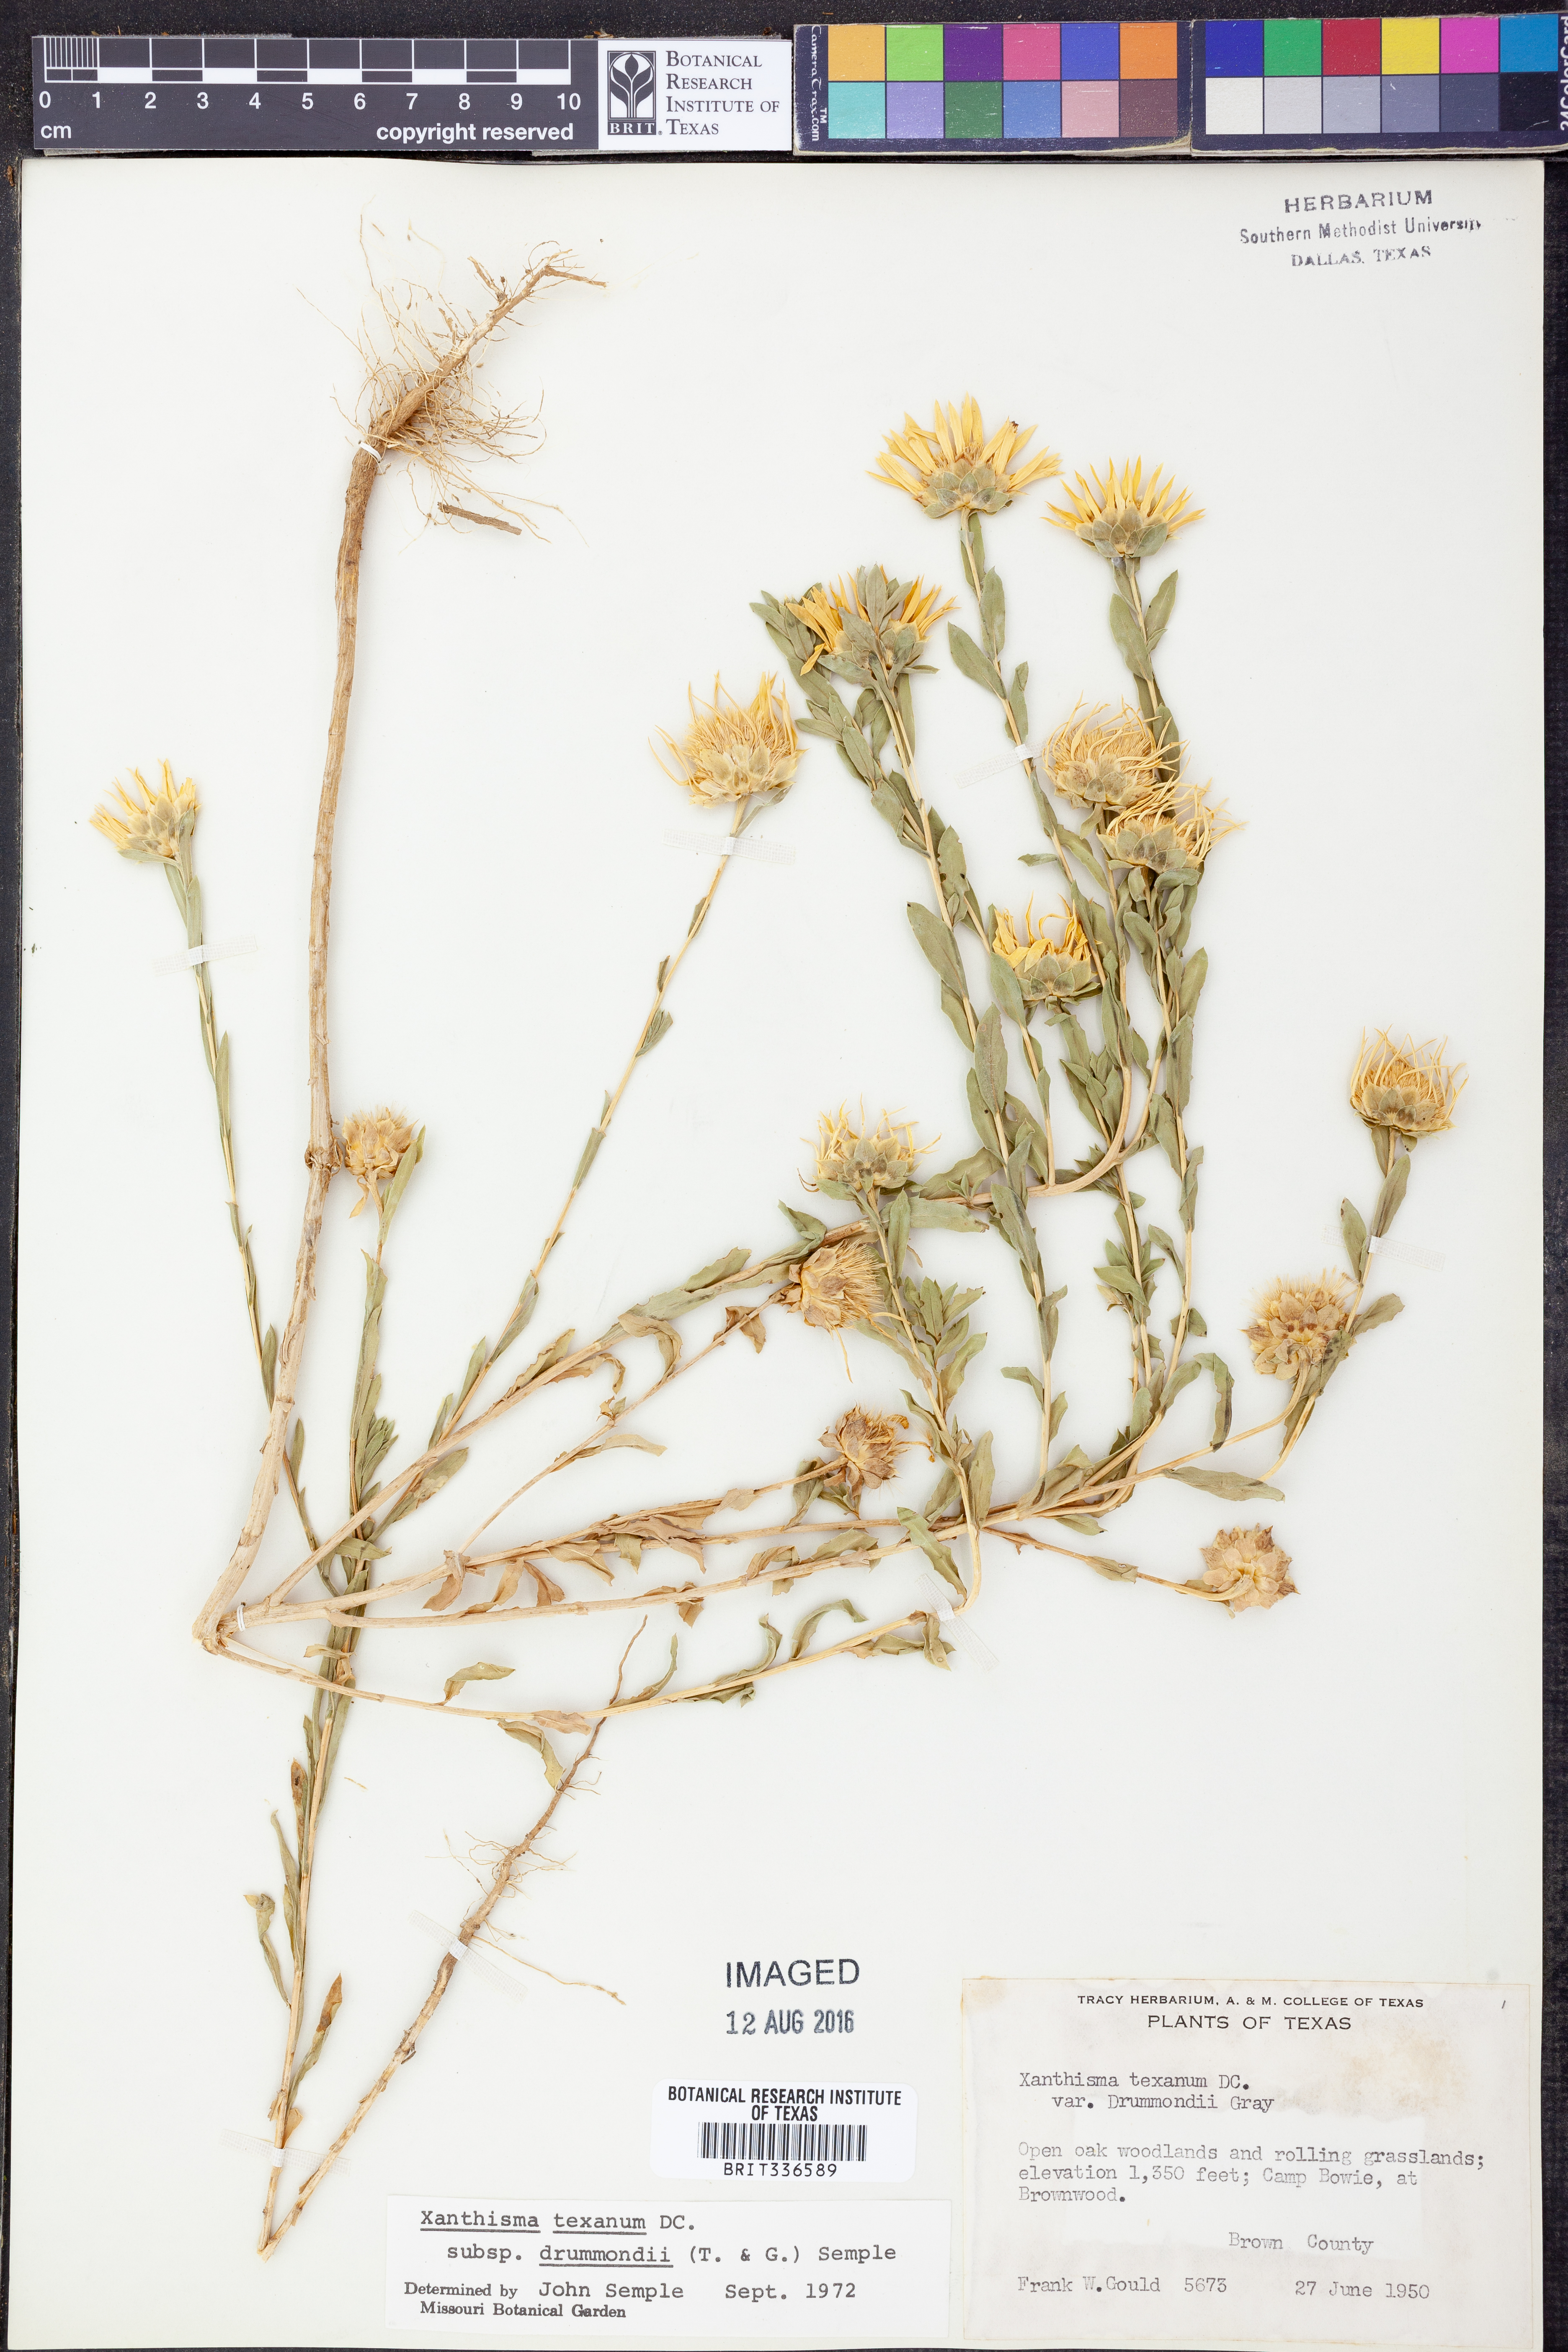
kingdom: Plantae
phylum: Tracheophyta
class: Magnoliopsida
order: Asterales
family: Asteraceae
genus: Xanthisma
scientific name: Xanthisma texanum
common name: Texas sleepy daisy
